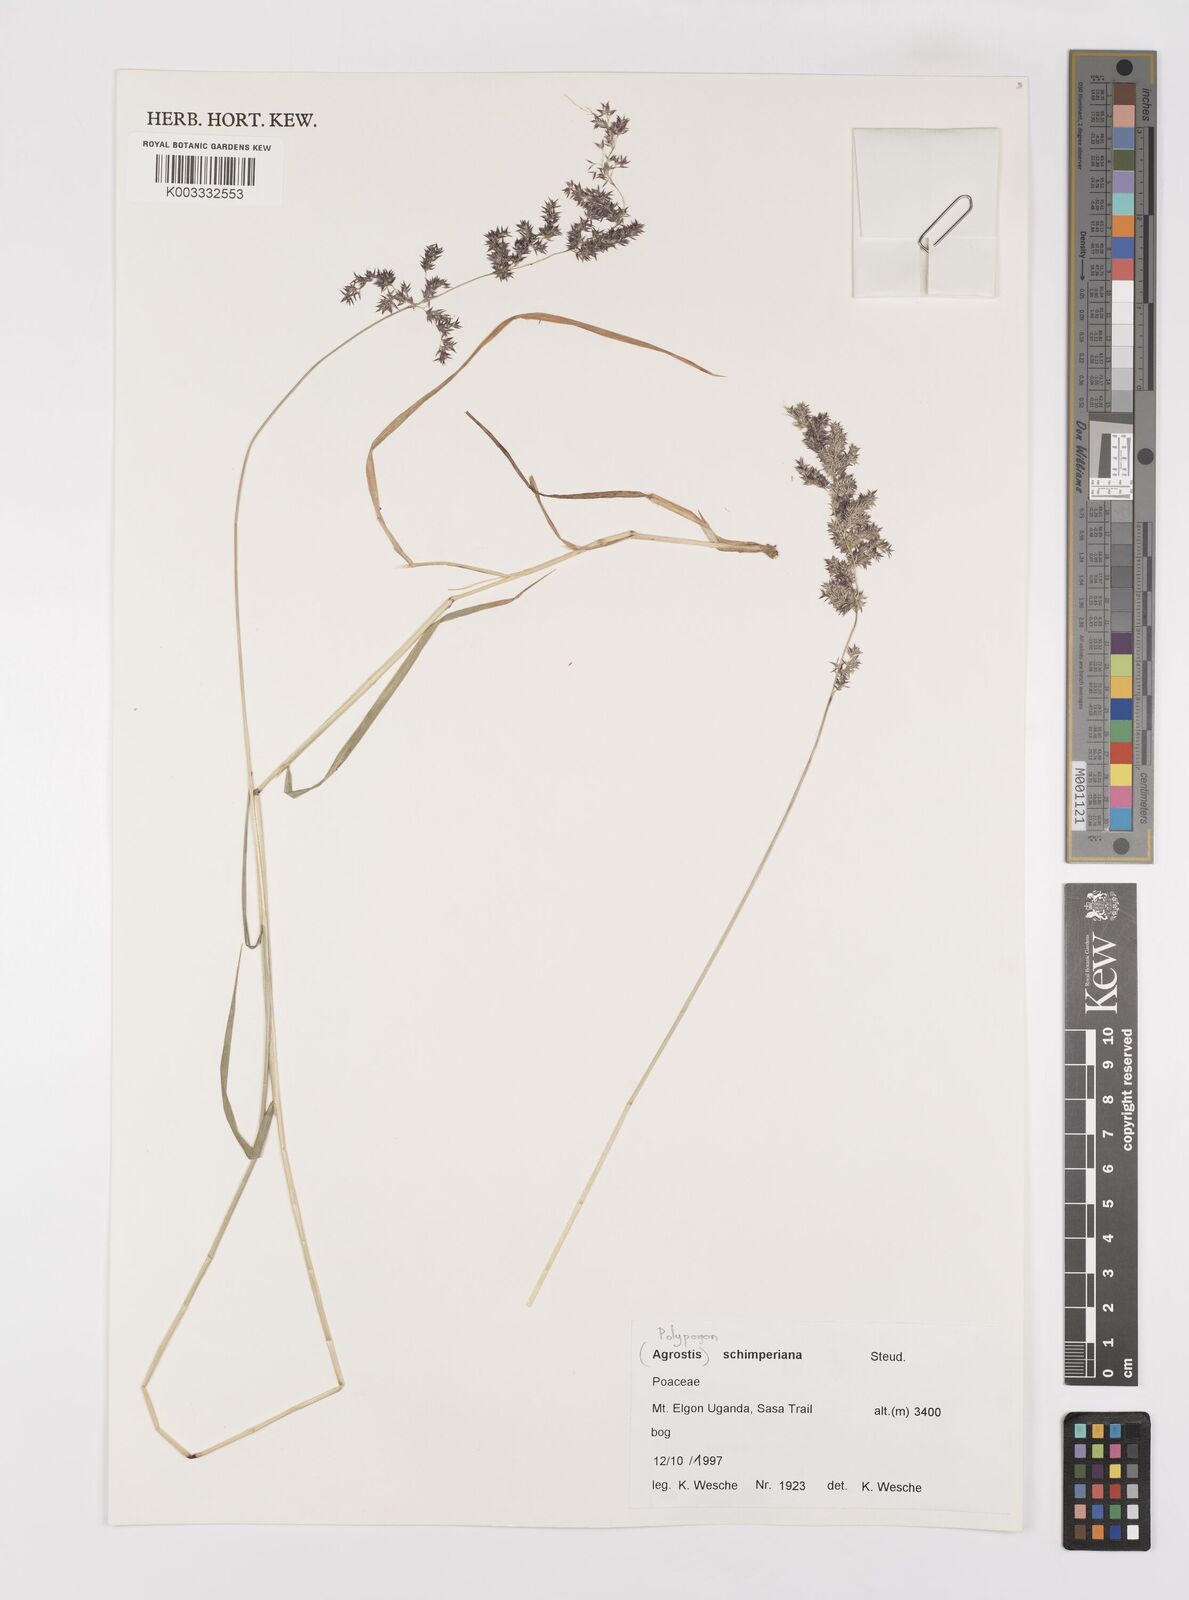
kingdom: Plantae
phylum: Tracheophyta
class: Liliopsida
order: Poales
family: Poaceae
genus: Polypogon
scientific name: Polypogon schimperianus
